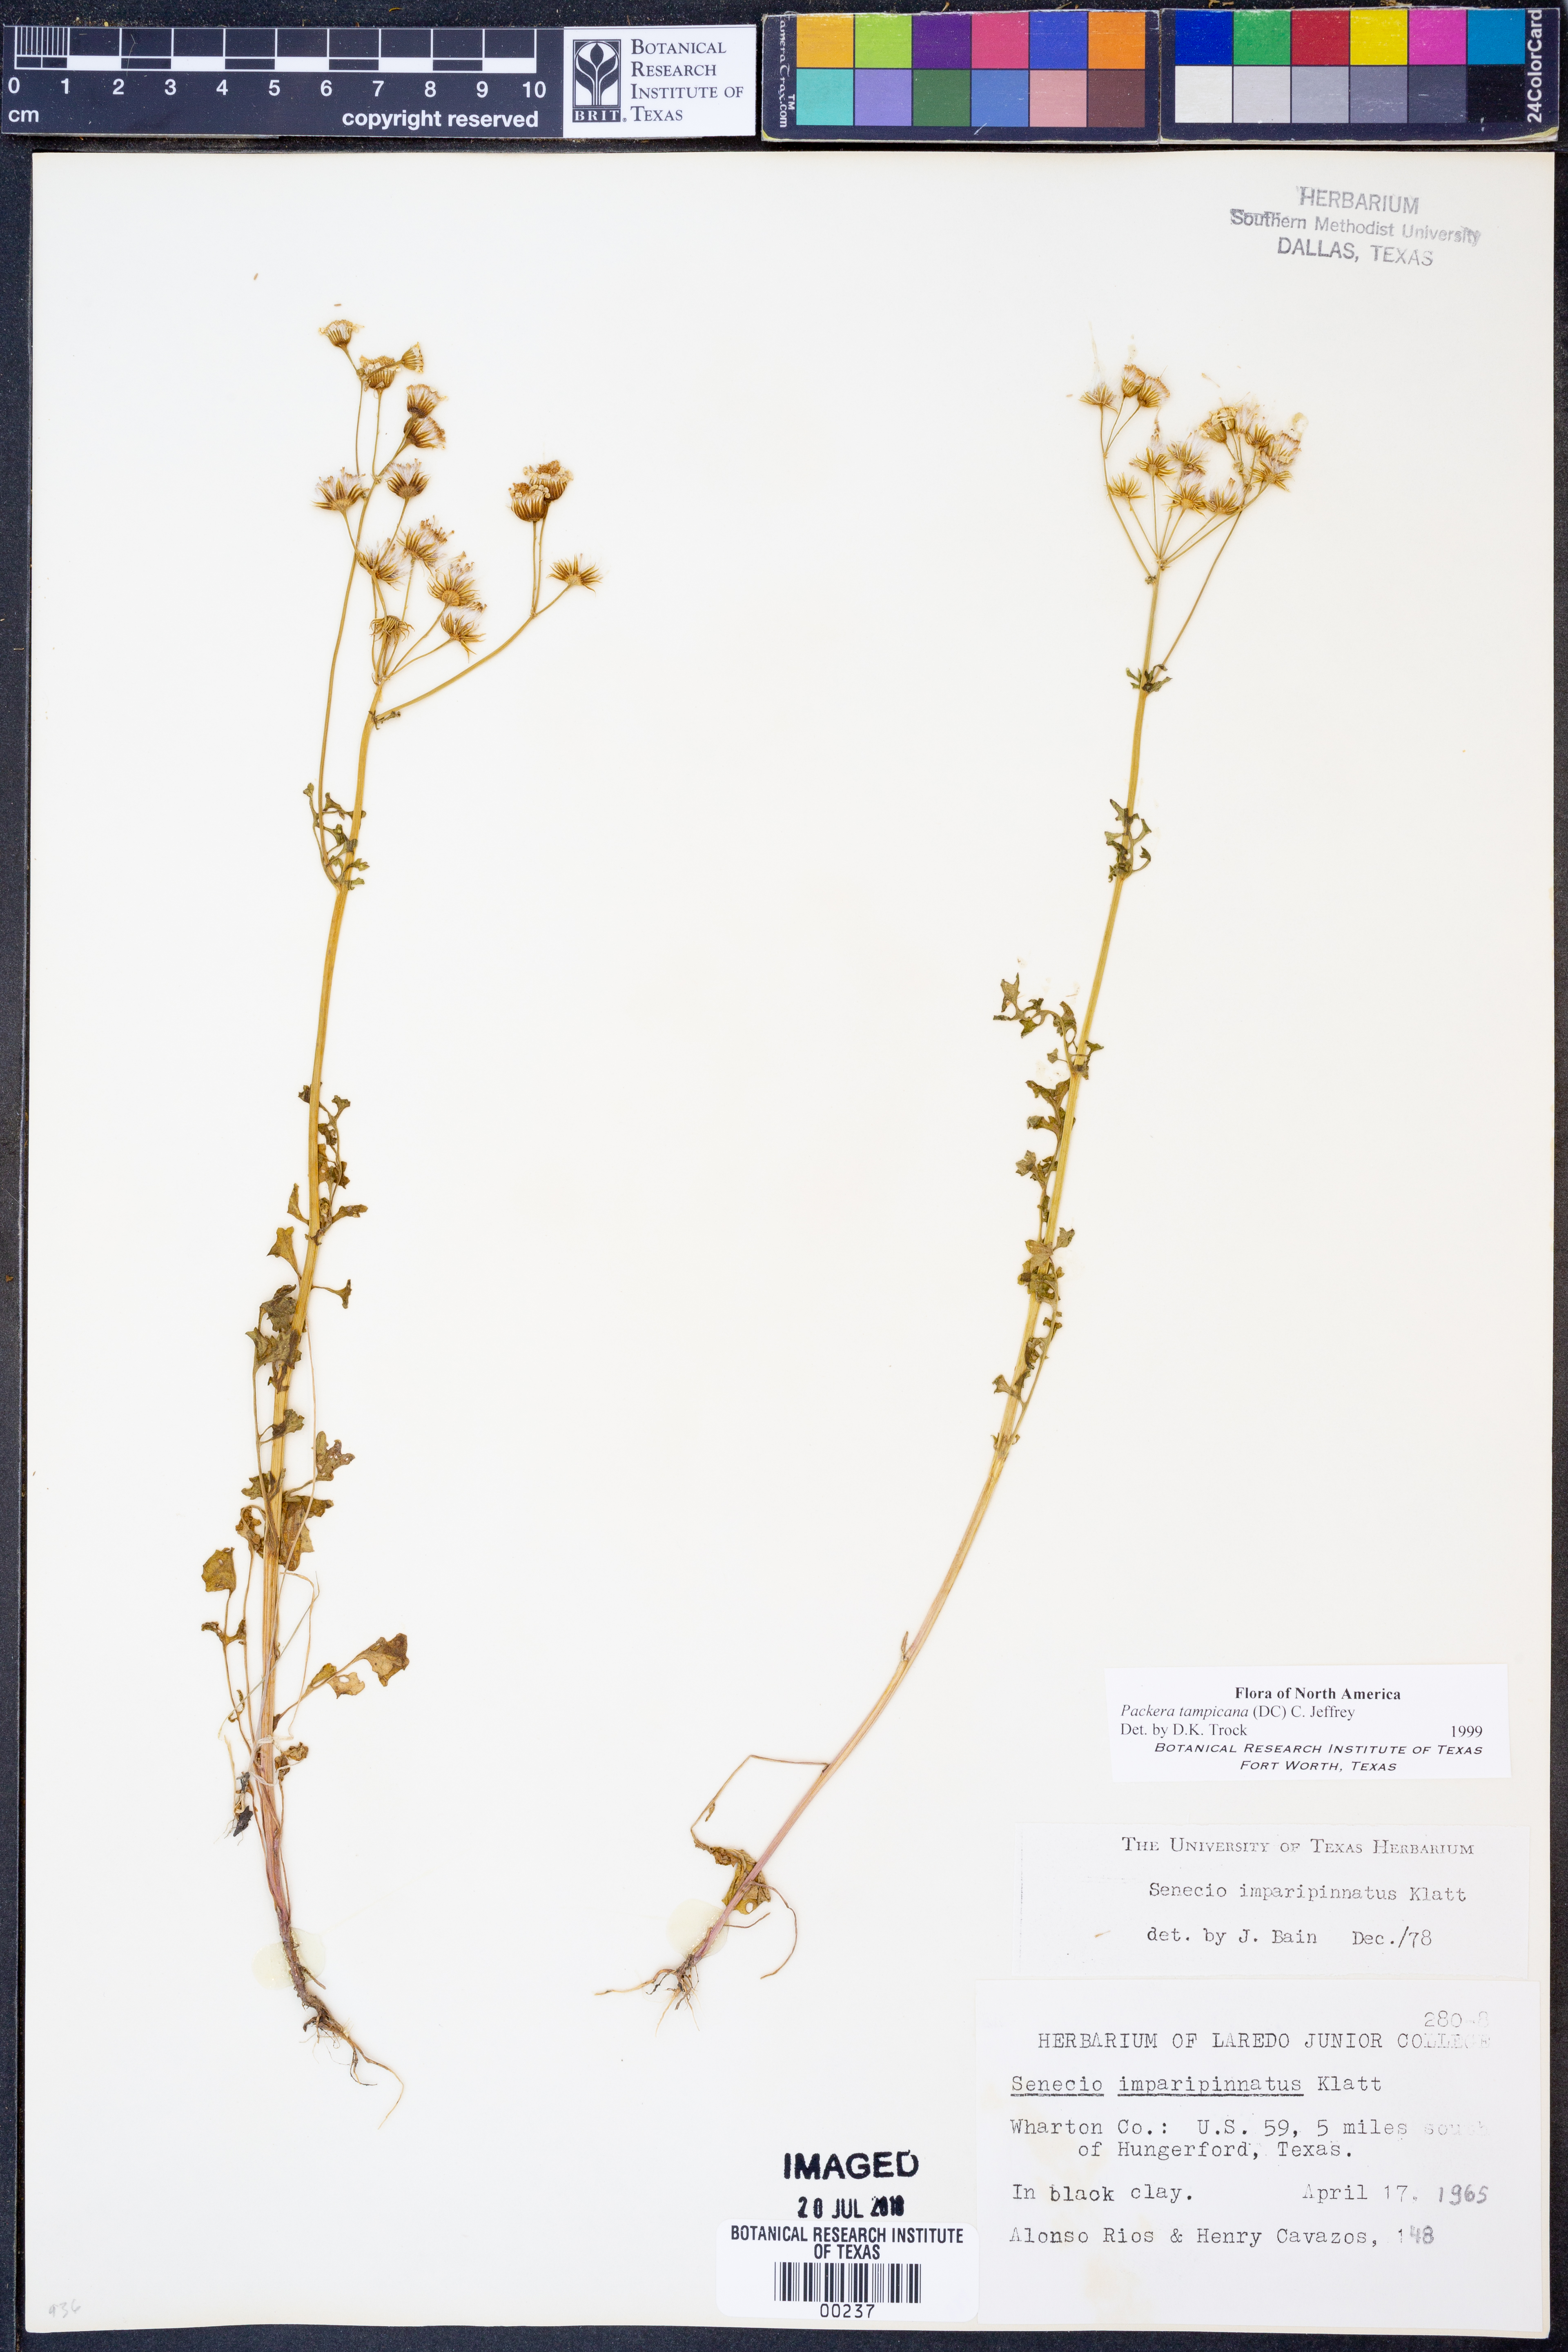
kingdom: Plantae
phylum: Tracheophyta
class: Magnoliopsida
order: Asterales
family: Asteraceae
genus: Packera
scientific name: Packera tampicana
